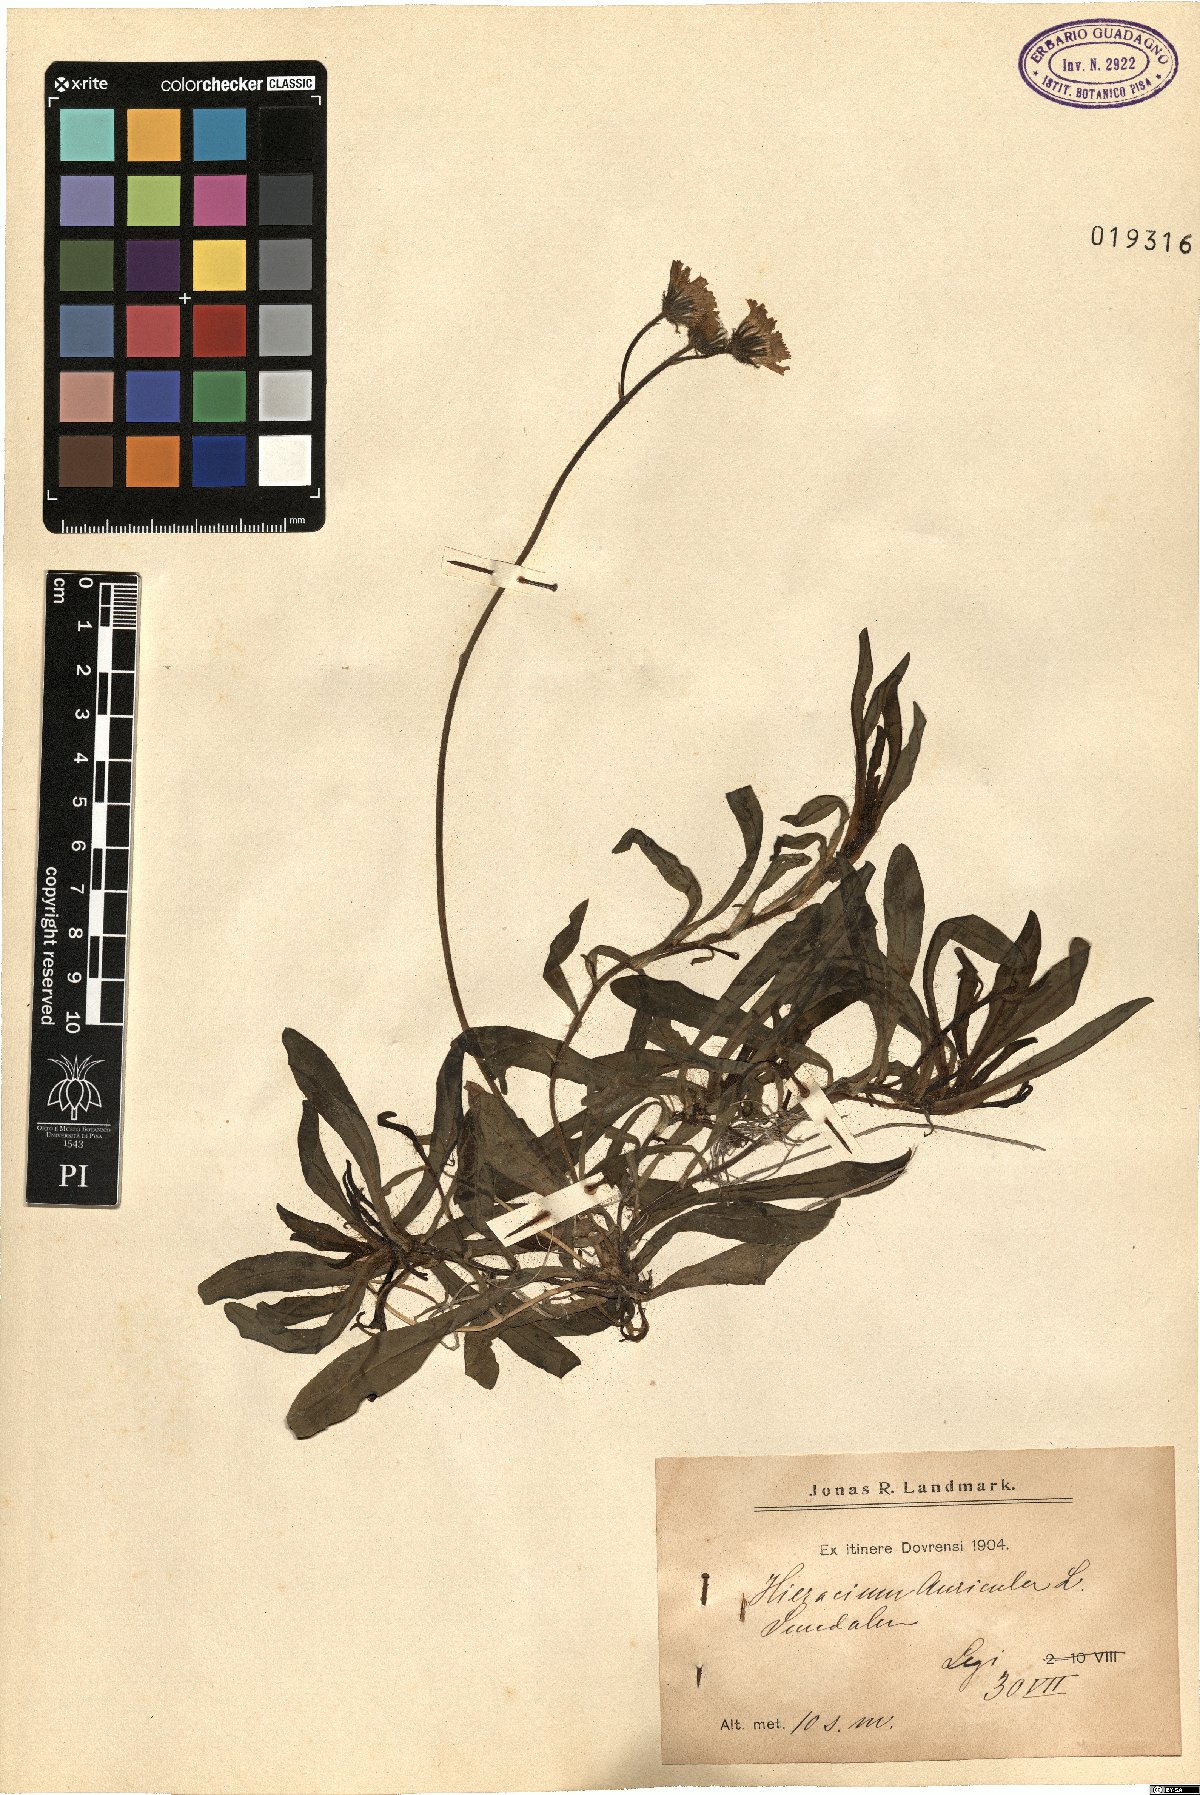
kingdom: Plantae
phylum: Tracheophyta
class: Magnoliopsida
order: Asterales
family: Asteraceae
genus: Pilosella
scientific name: Pilosella floribunda
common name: Glaucous hawkweed
